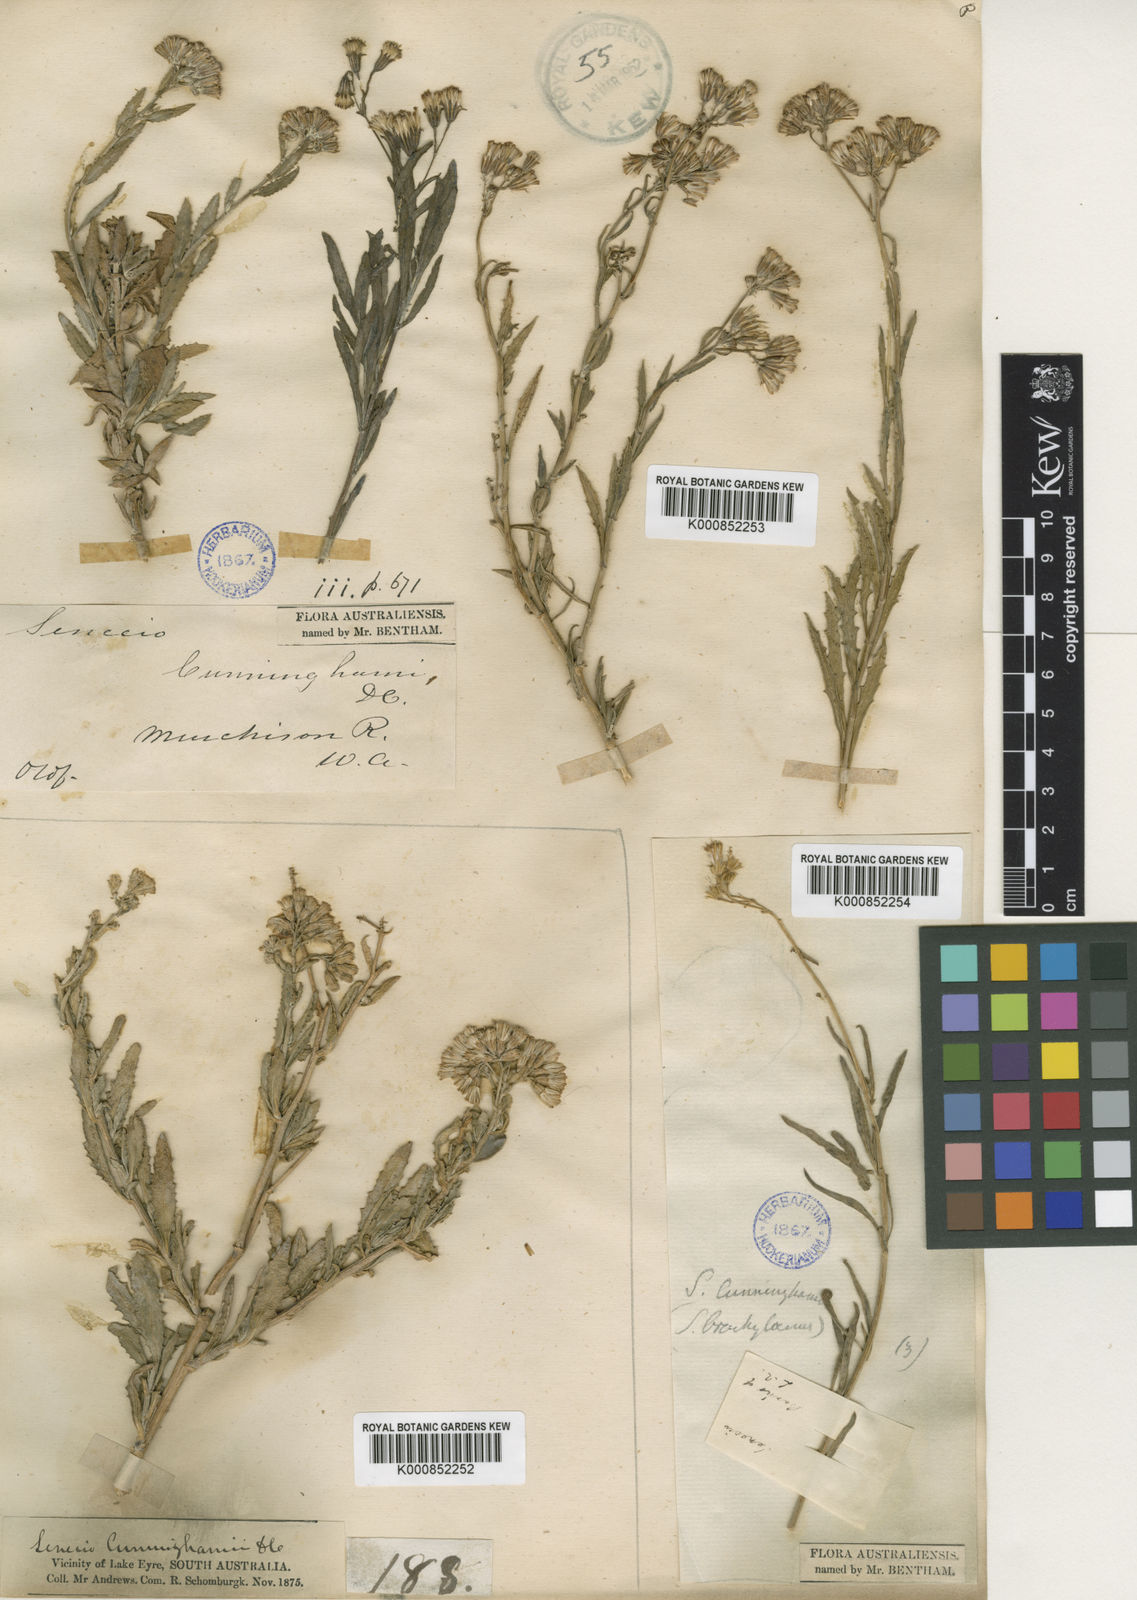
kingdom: Plantae
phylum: Tracheophyta
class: Magnoliopsida
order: Asterales
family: Asteraceae
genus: Senecio
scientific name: Senecio cunninghamii
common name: Bushy groundsel
